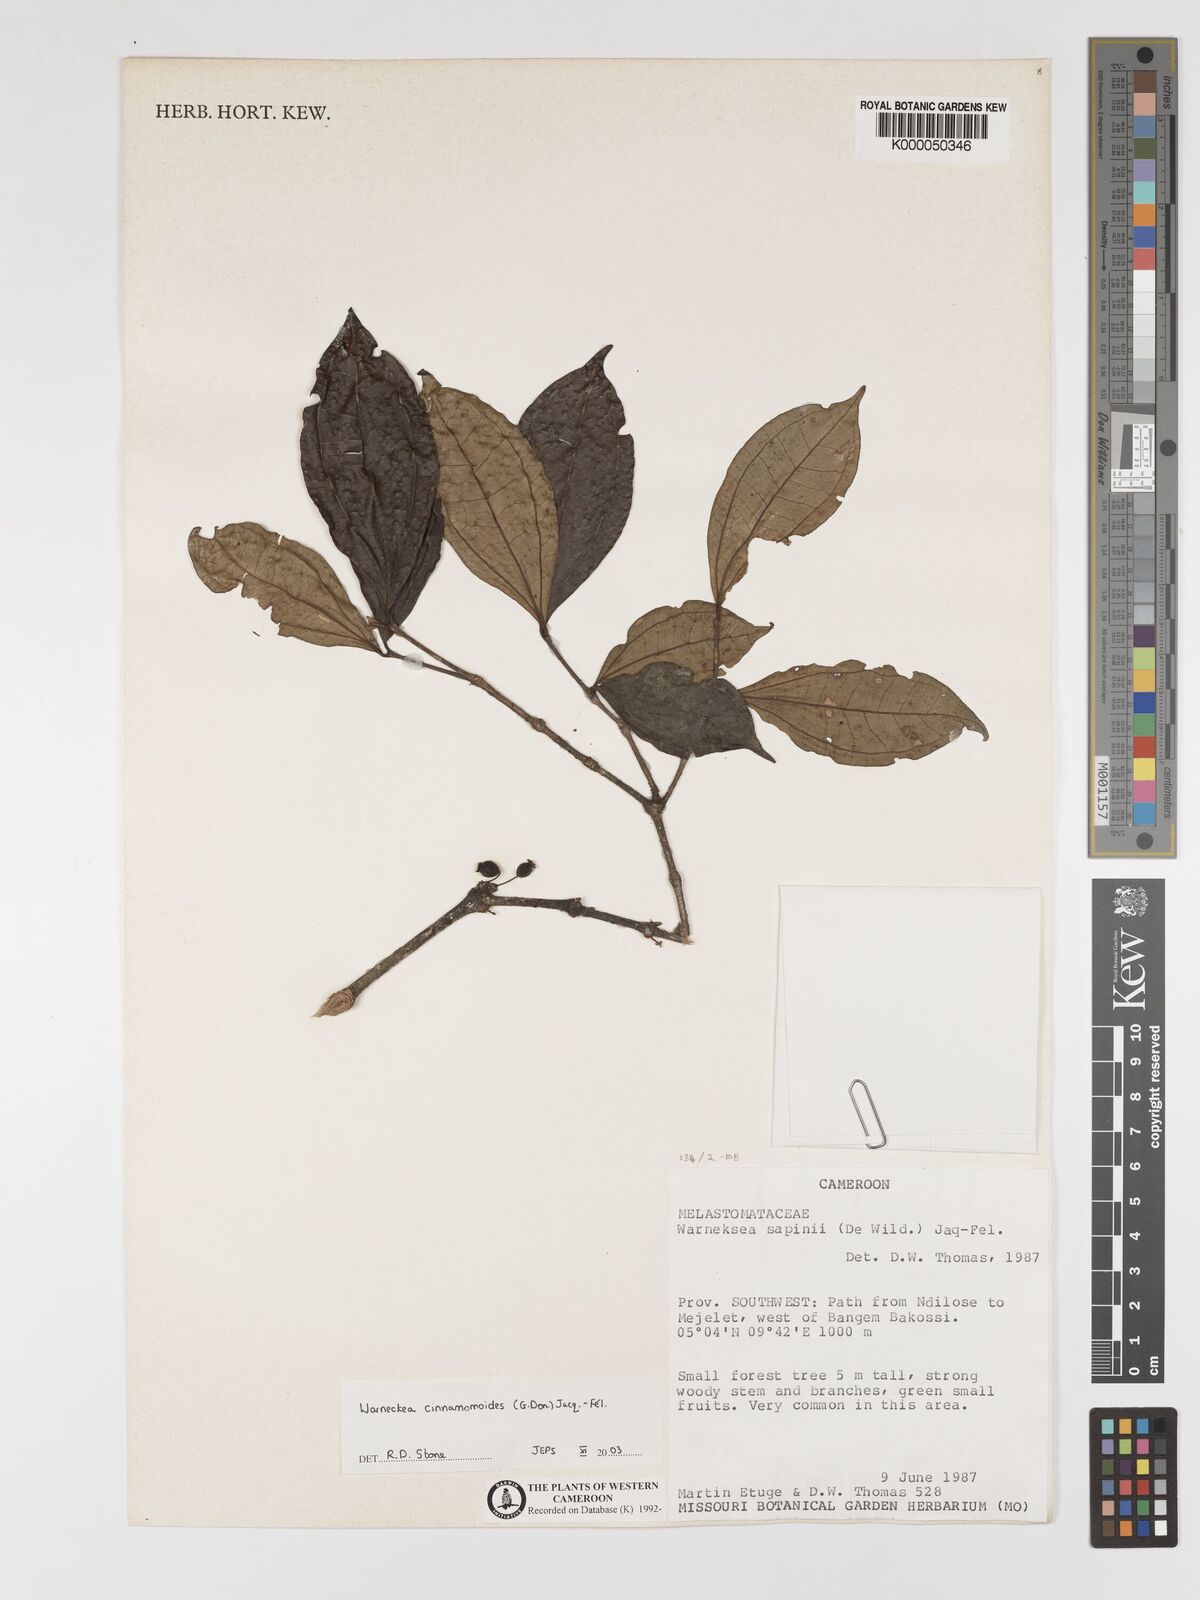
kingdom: Plantae
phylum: Tracheophyta
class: Magnoliopsida
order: Myrtales
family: Melastomataceae
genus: Warneckea
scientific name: Warneckea
